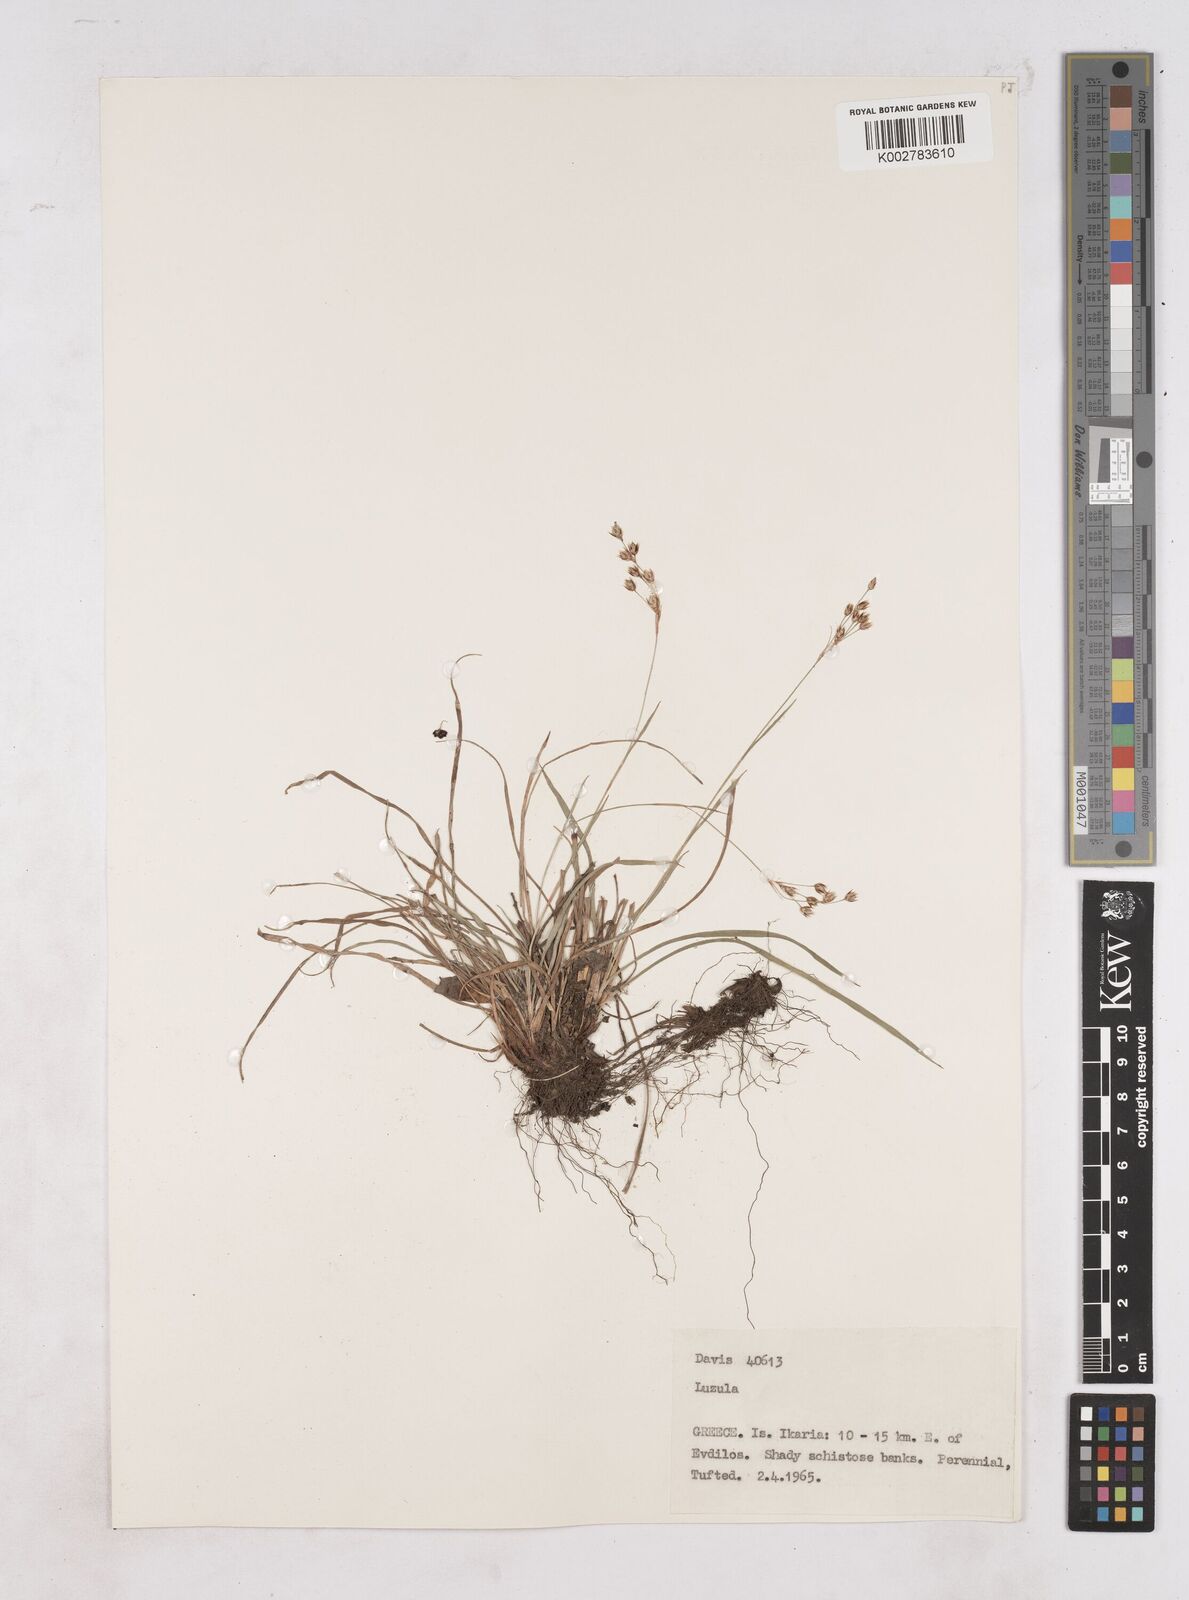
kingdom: Plantae
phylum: Tracheophyta
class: Liliopsida
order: Poales
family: Juncaceae
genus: Luzula
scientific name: Luzula
